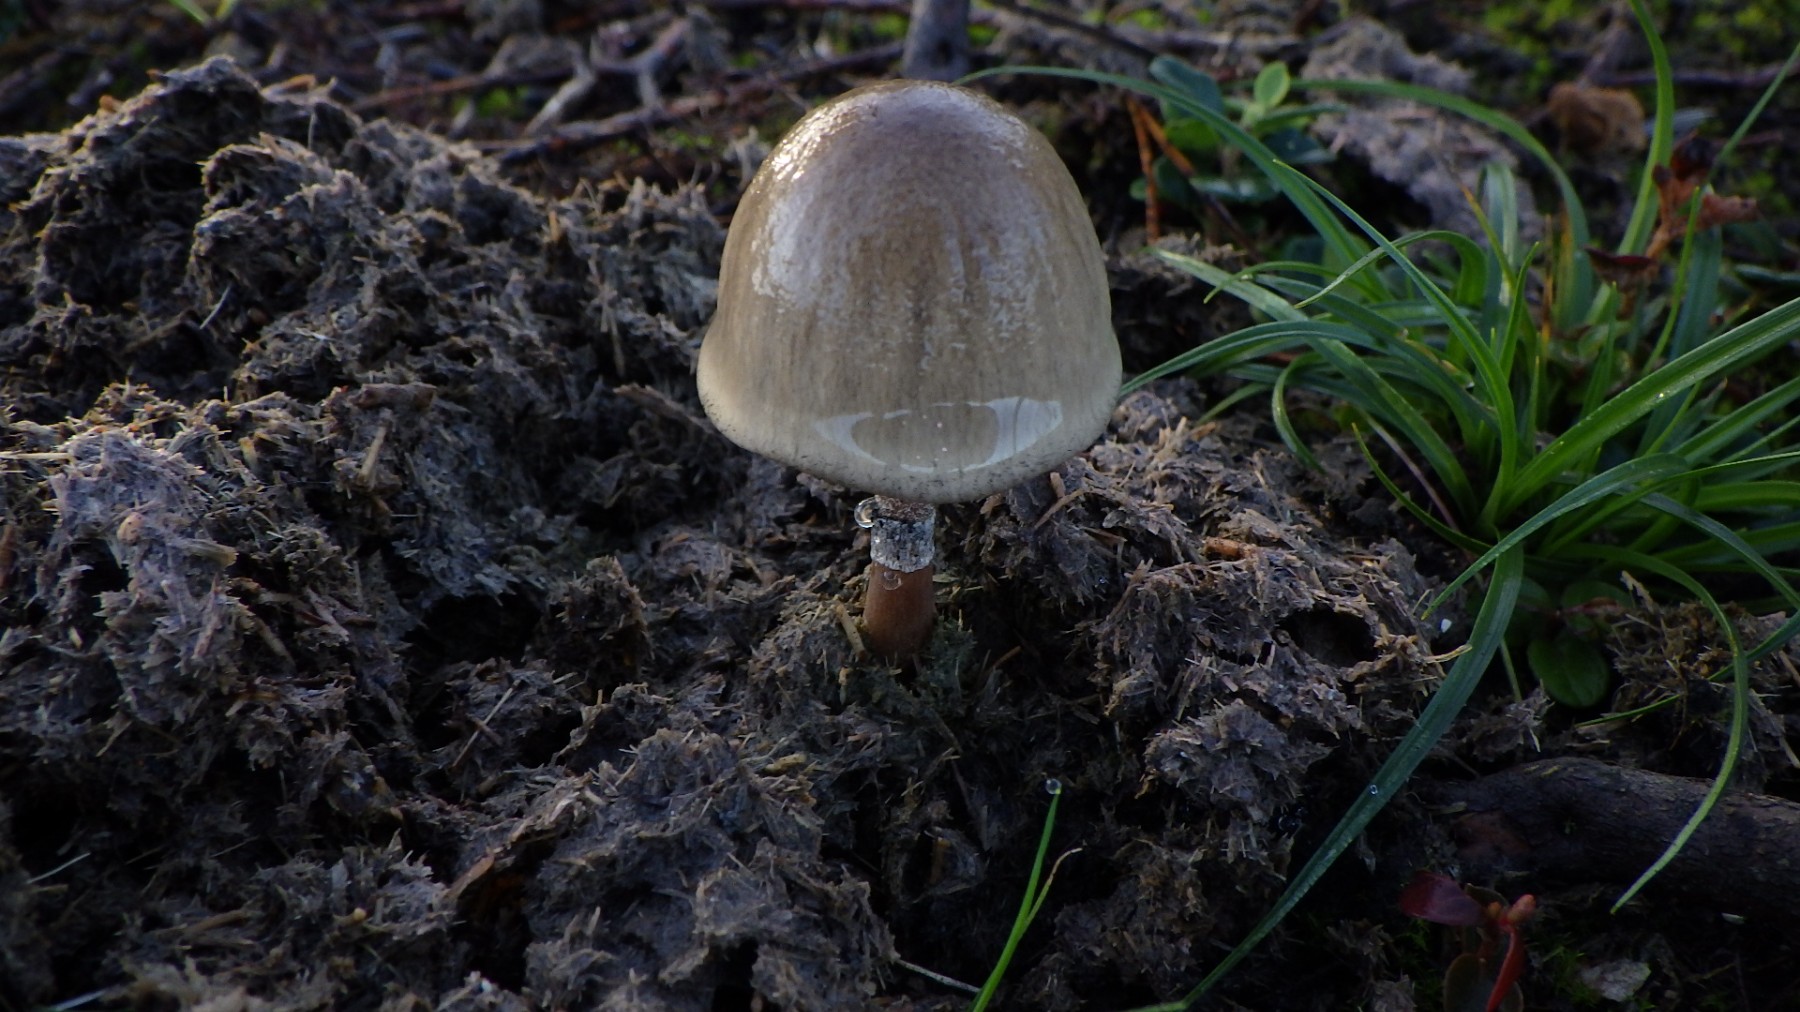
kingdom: Fungi
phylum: Basidiomycota
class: Agaricomycetes
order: Agaricales
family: Bolbitiaceae
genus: Panaeolus
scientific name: Panaeolus semiovatus
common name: ring-glanshat
